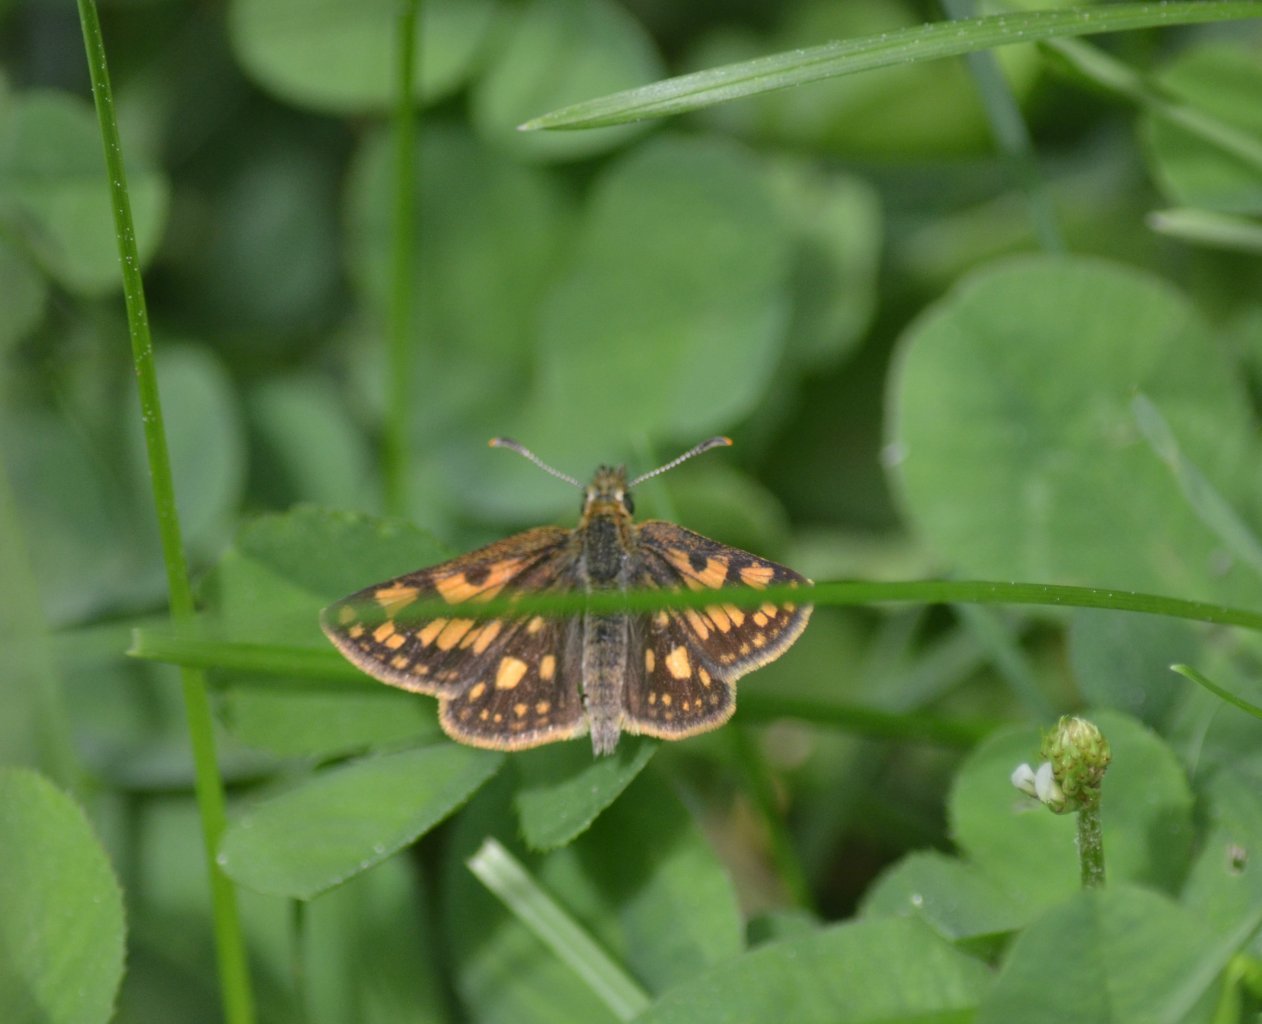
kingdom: Animalia
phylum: Arthropoda
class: Insecta
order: Lepidoptera
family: Hesperiidae
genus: Carterocephalus
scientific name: Carterocephalus palaemon
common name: Chequered Skipper
